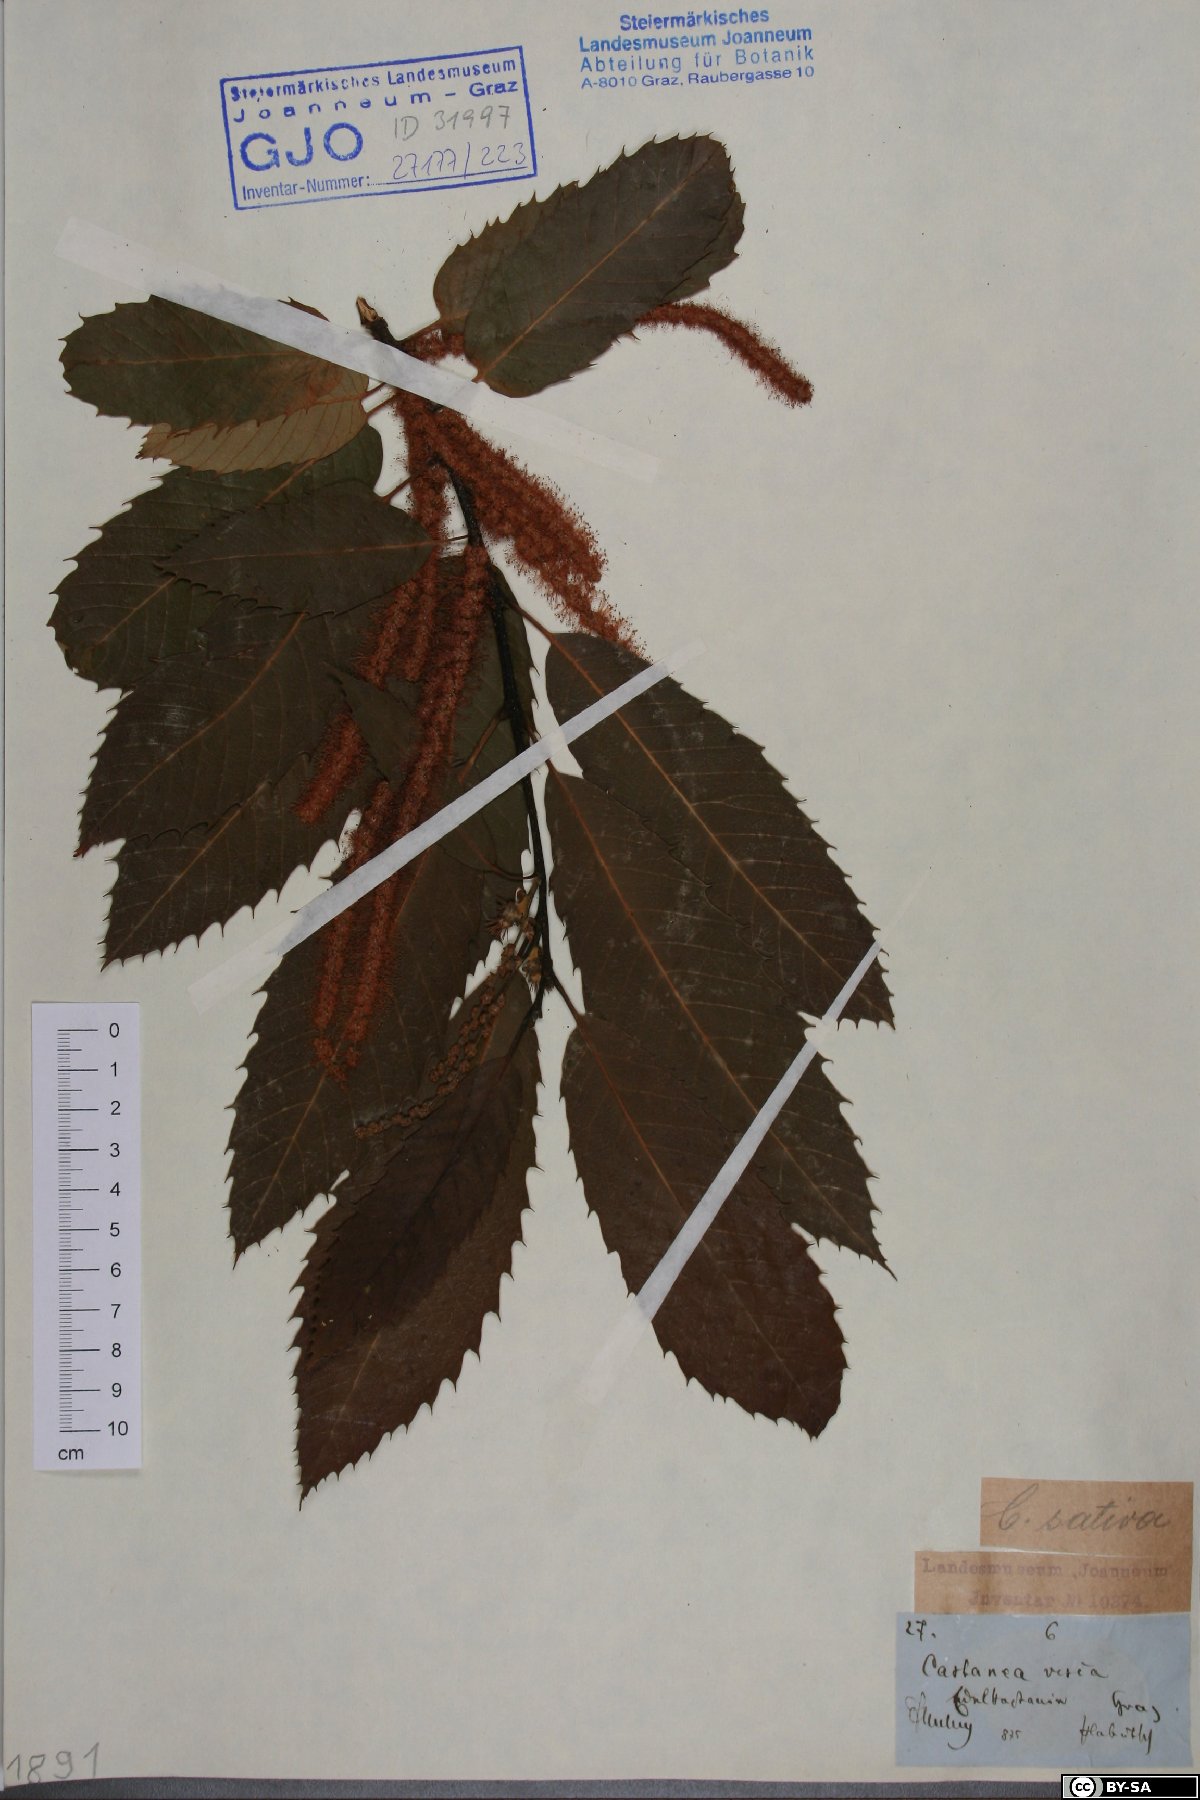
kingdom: Plantae
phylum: Tracheophyta
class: Magnoliopsida
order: Fagales
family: Fagaceae
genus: Castanea
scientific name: Castanea sativa
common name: Sweet chestnut
